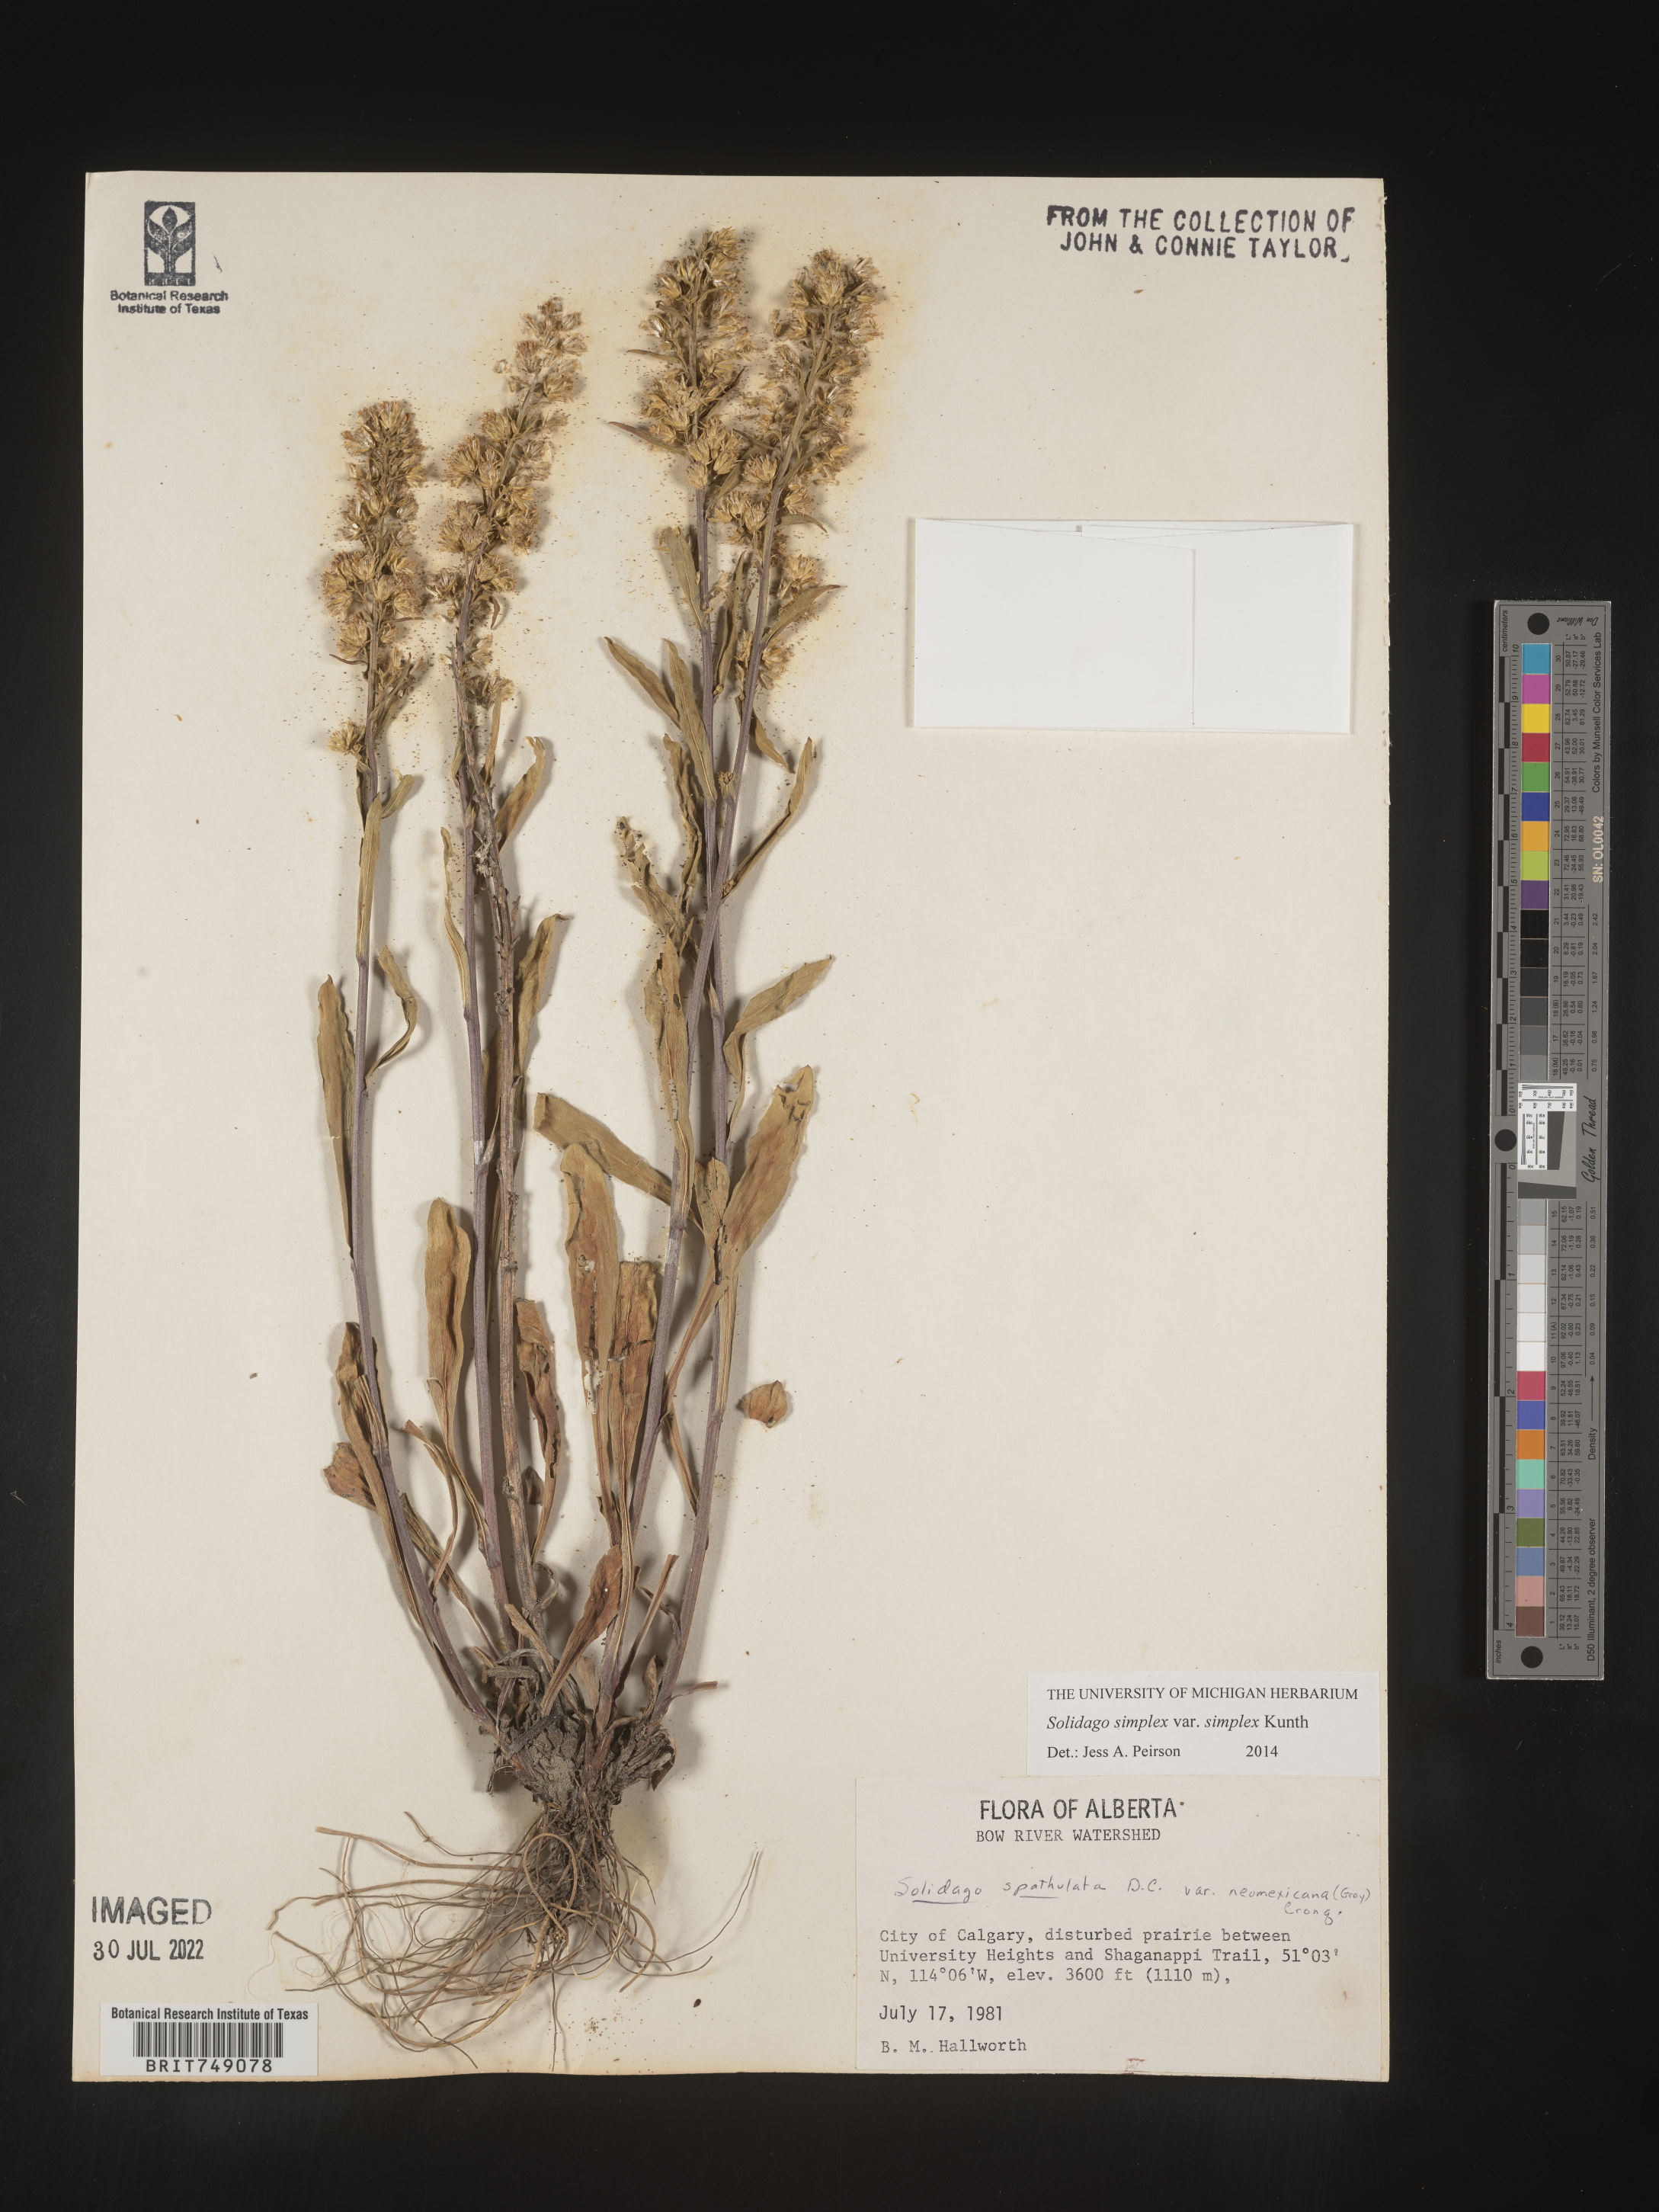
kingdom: Plantae
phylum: Tracheophyta
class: Magnoliopsida
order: Asterales
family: Asteraceae
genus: Solidago
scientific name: Solidago simplex
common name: Sticky goldenrod
